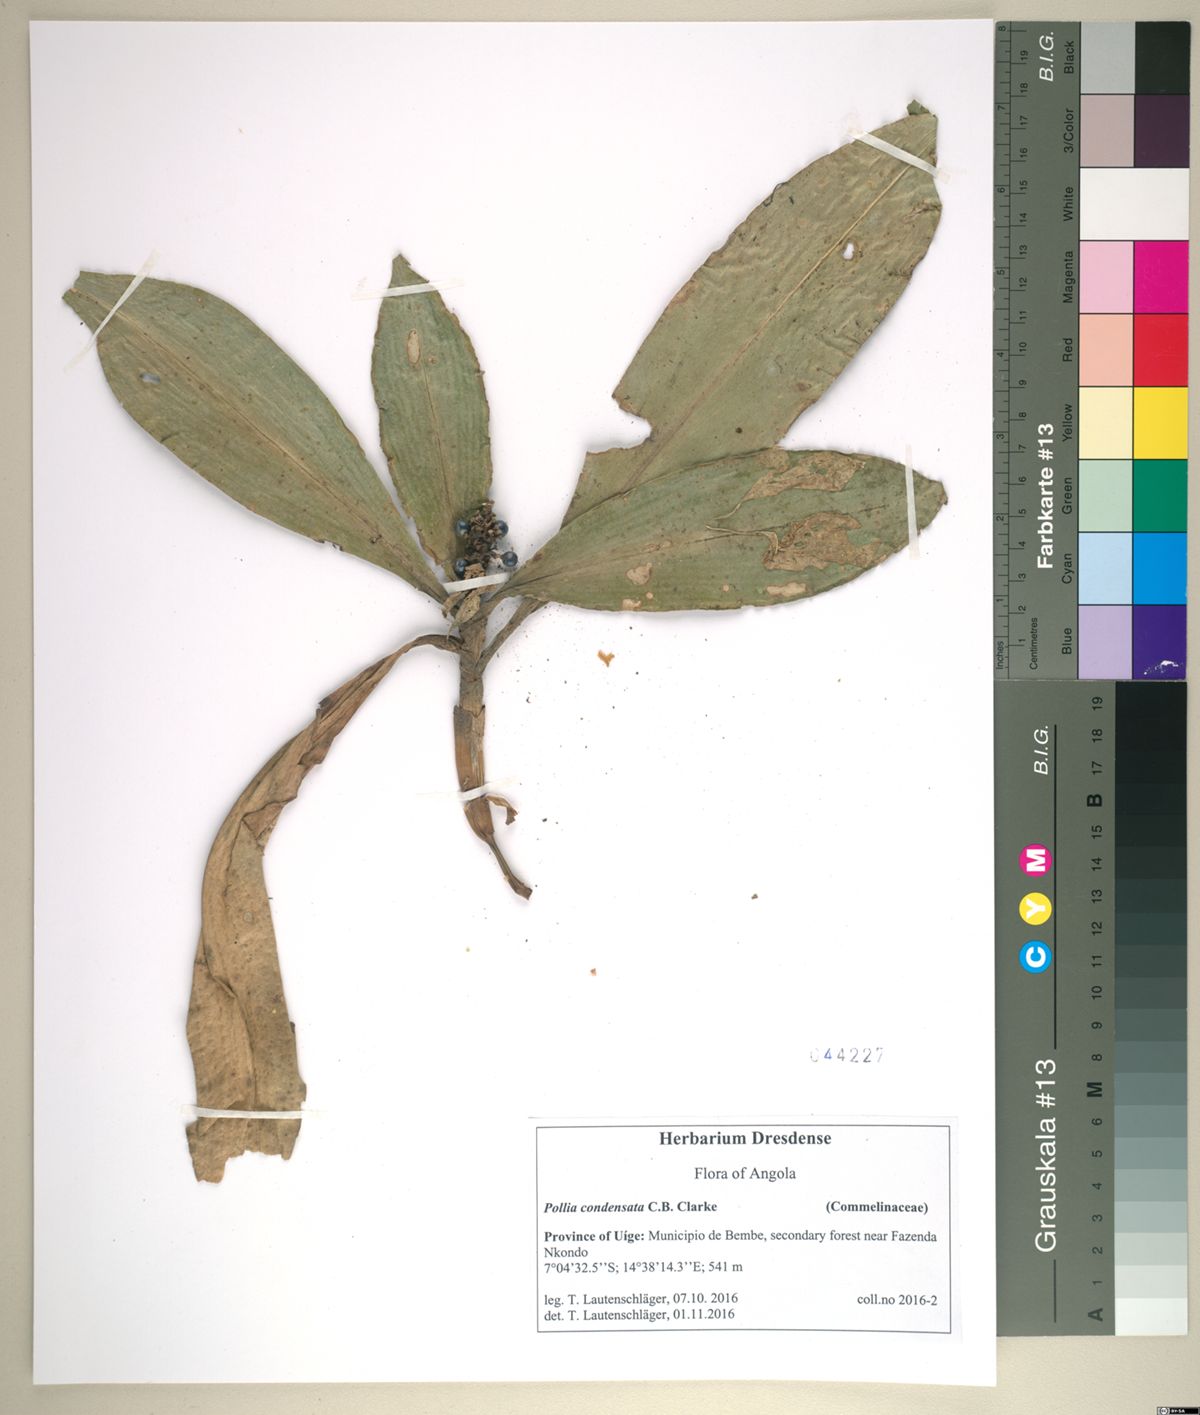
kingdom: Plantae
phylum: Tracheophyta
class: Liliopsida
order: Commelinales
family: Commelinaceae
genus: Pollia
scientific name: Pollia condensata
